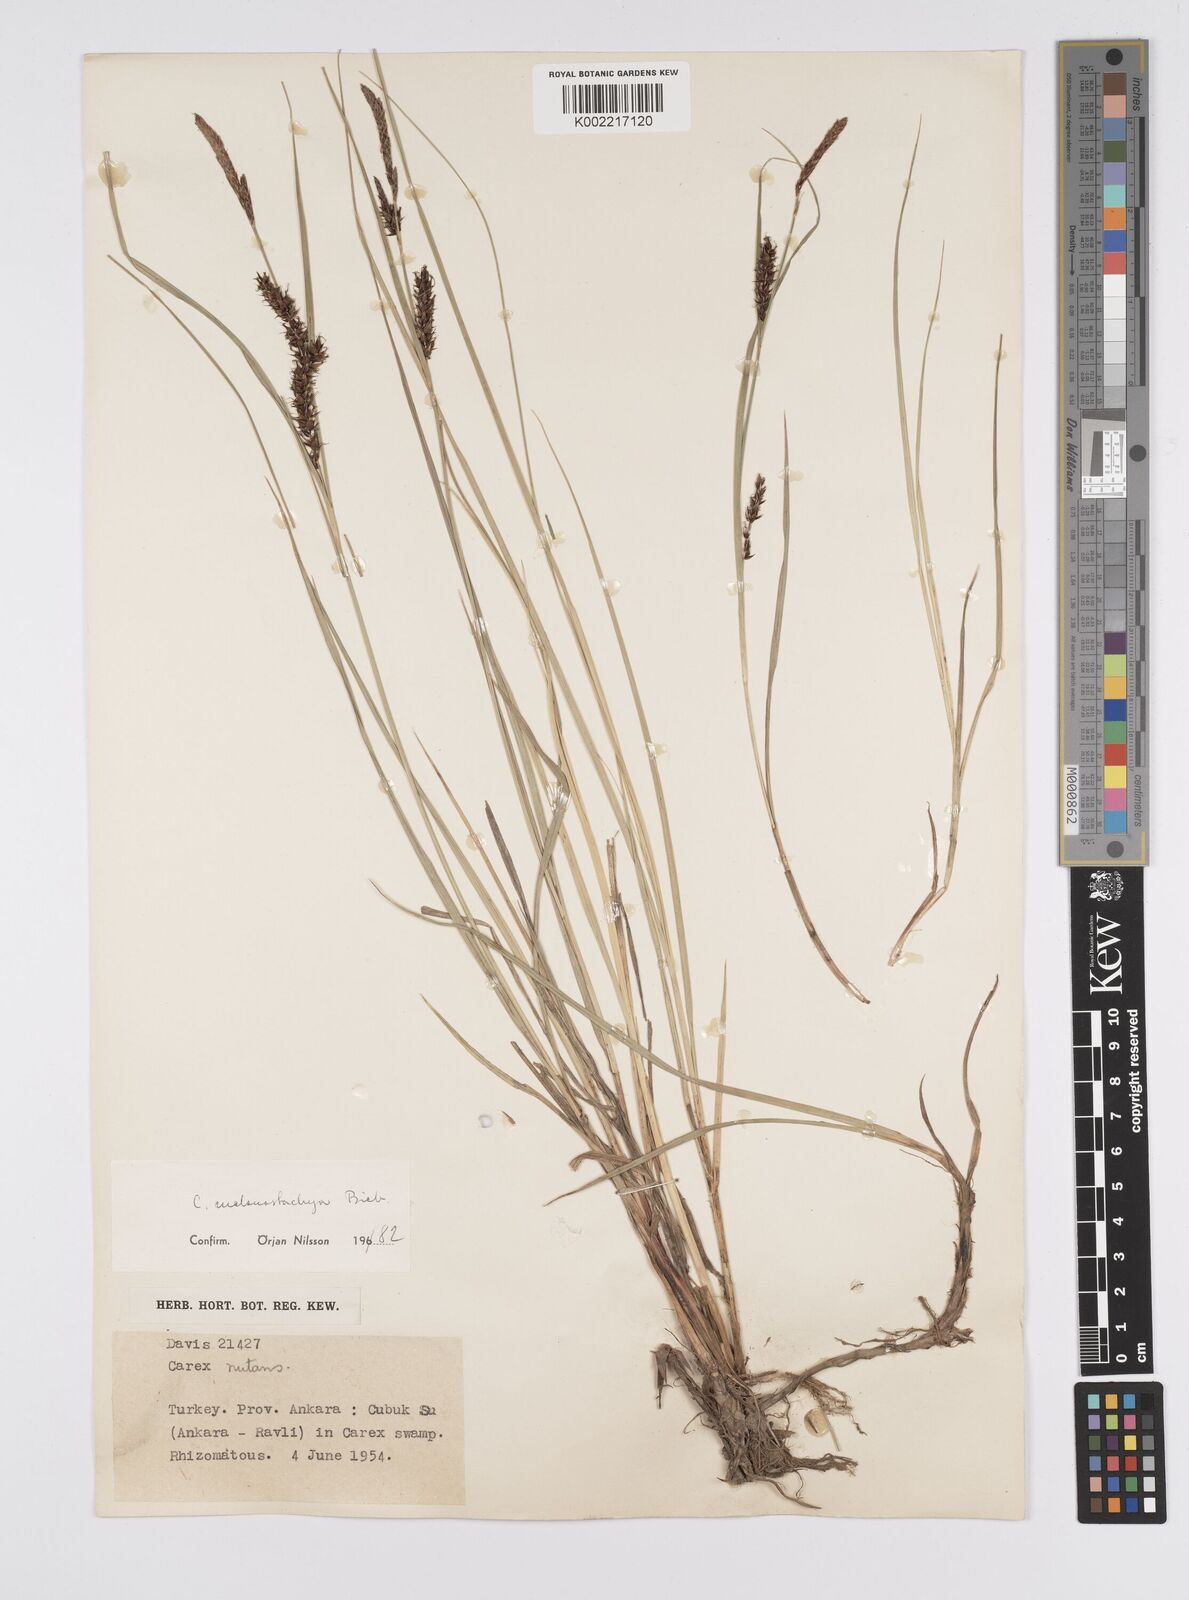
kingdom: Plantae
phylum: Tracheophyta
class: Liliopsida
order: Poales
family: Cyperaceae
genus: Carex
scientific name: Carex melanostachya
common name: Black-spiked sedge
